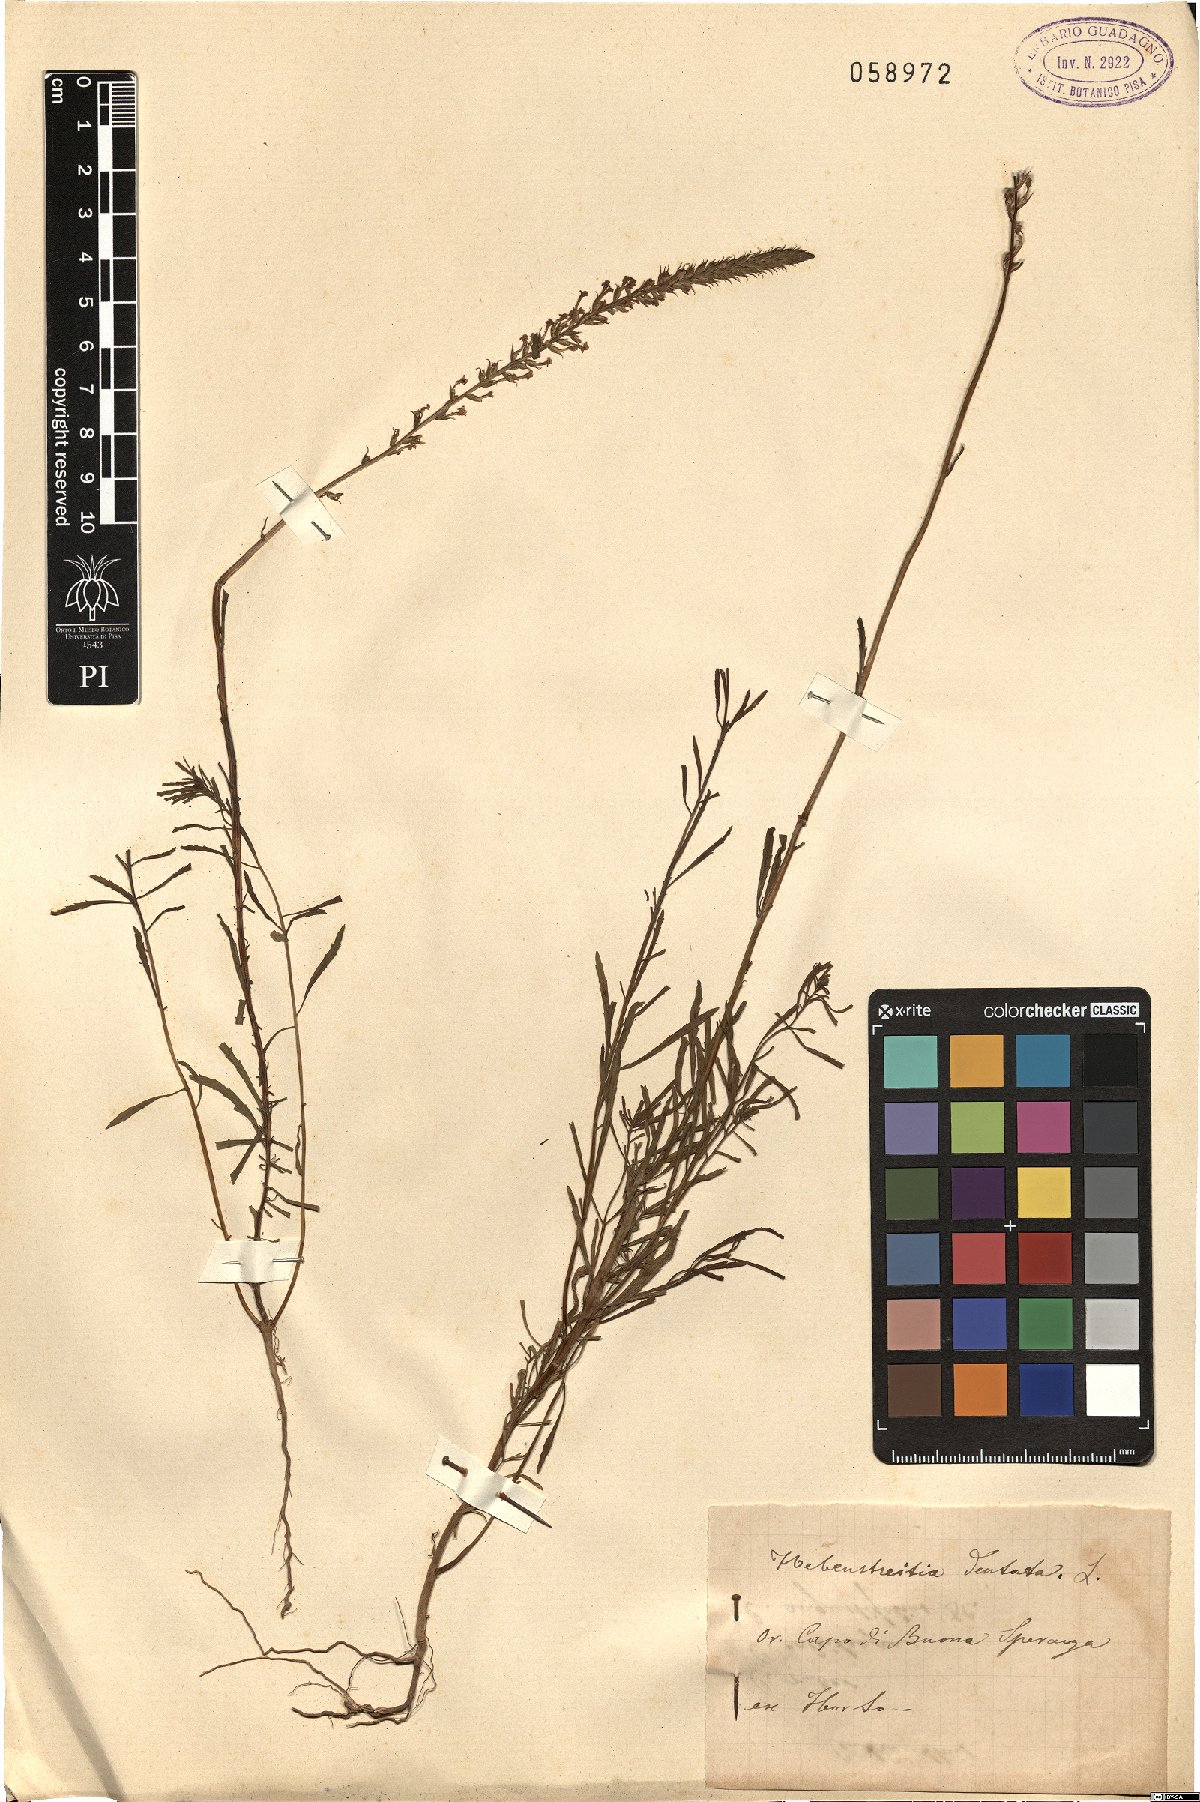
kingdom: Plantae
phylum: Tracheophyta
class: Magnoliopsida
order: Lamiales
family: Scrophulariaceae
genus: Hebenstretia
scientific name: Hebenstretia dentata
